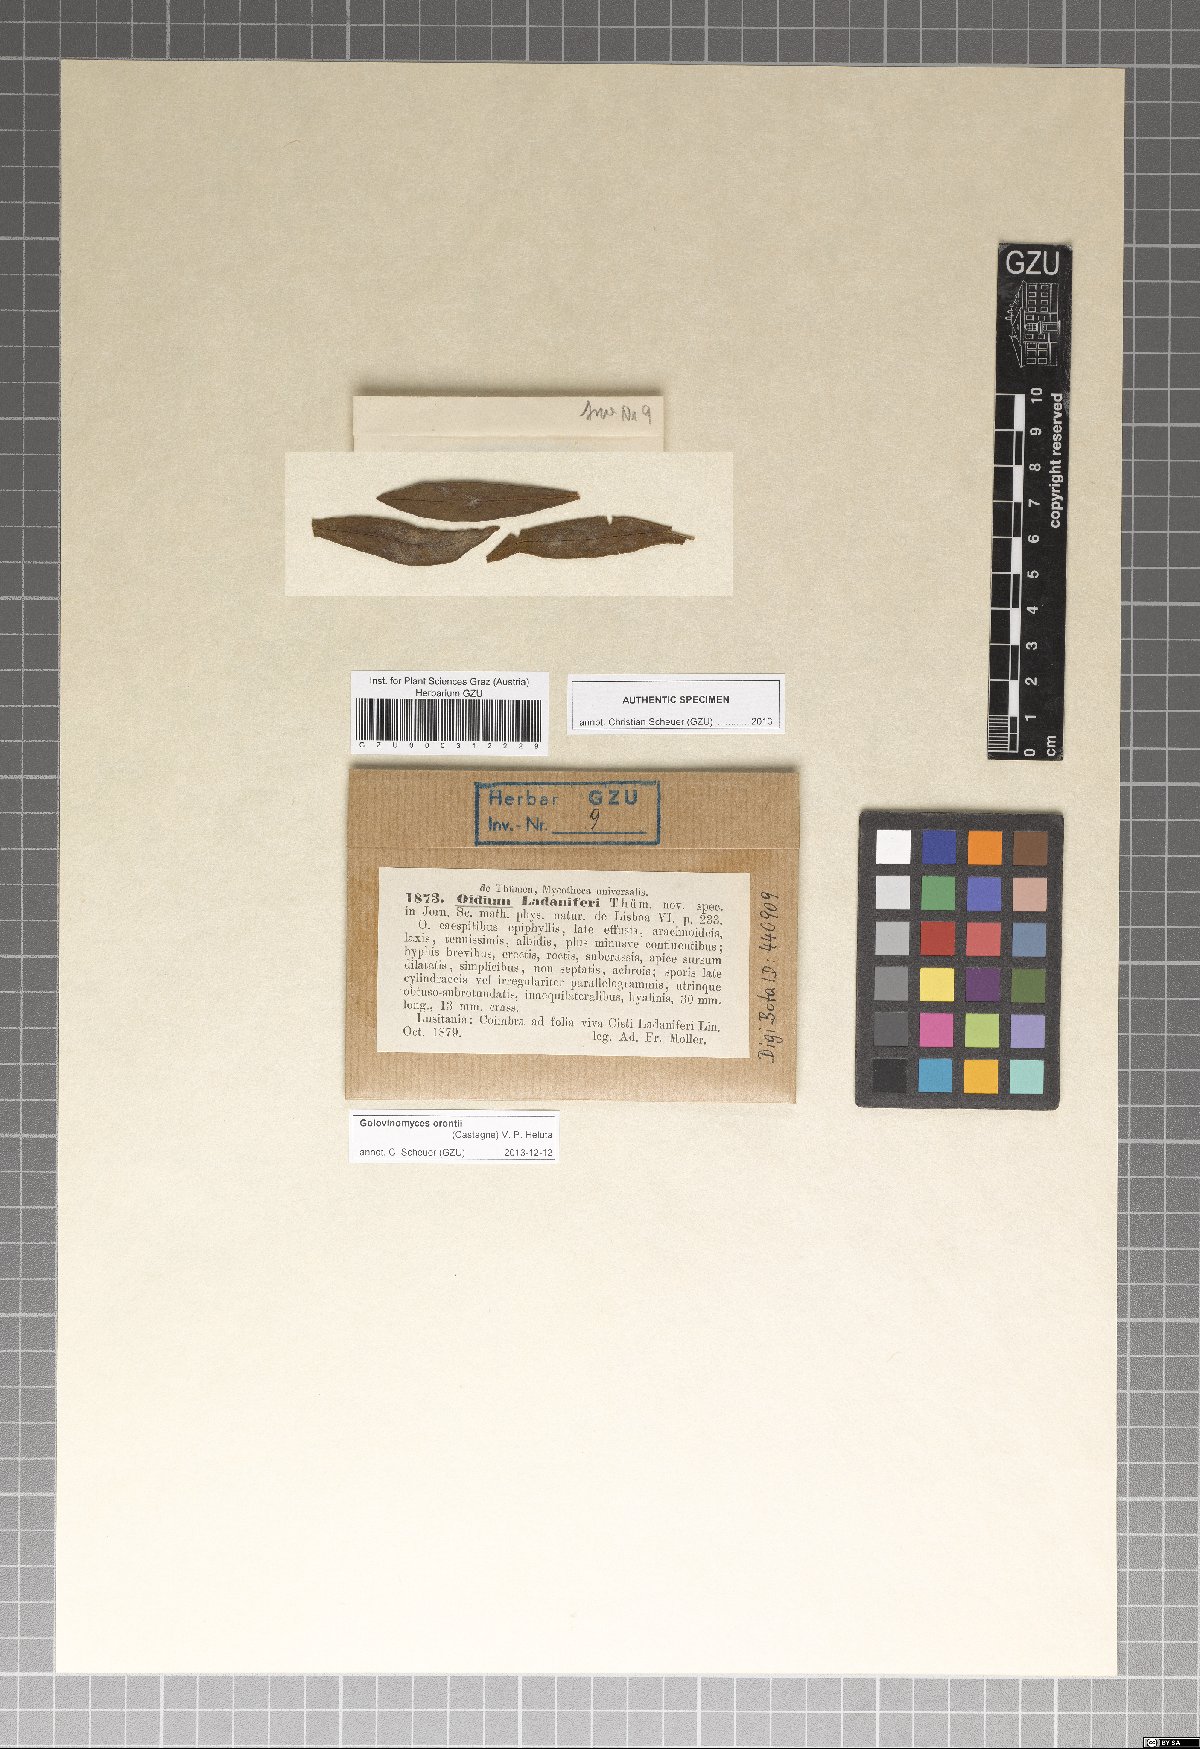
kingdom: Fungi
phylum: Ascomycota
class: Leotiomycetes
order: Helotiales
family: Erysiphaceae
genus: Oidium
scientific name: Oidium
